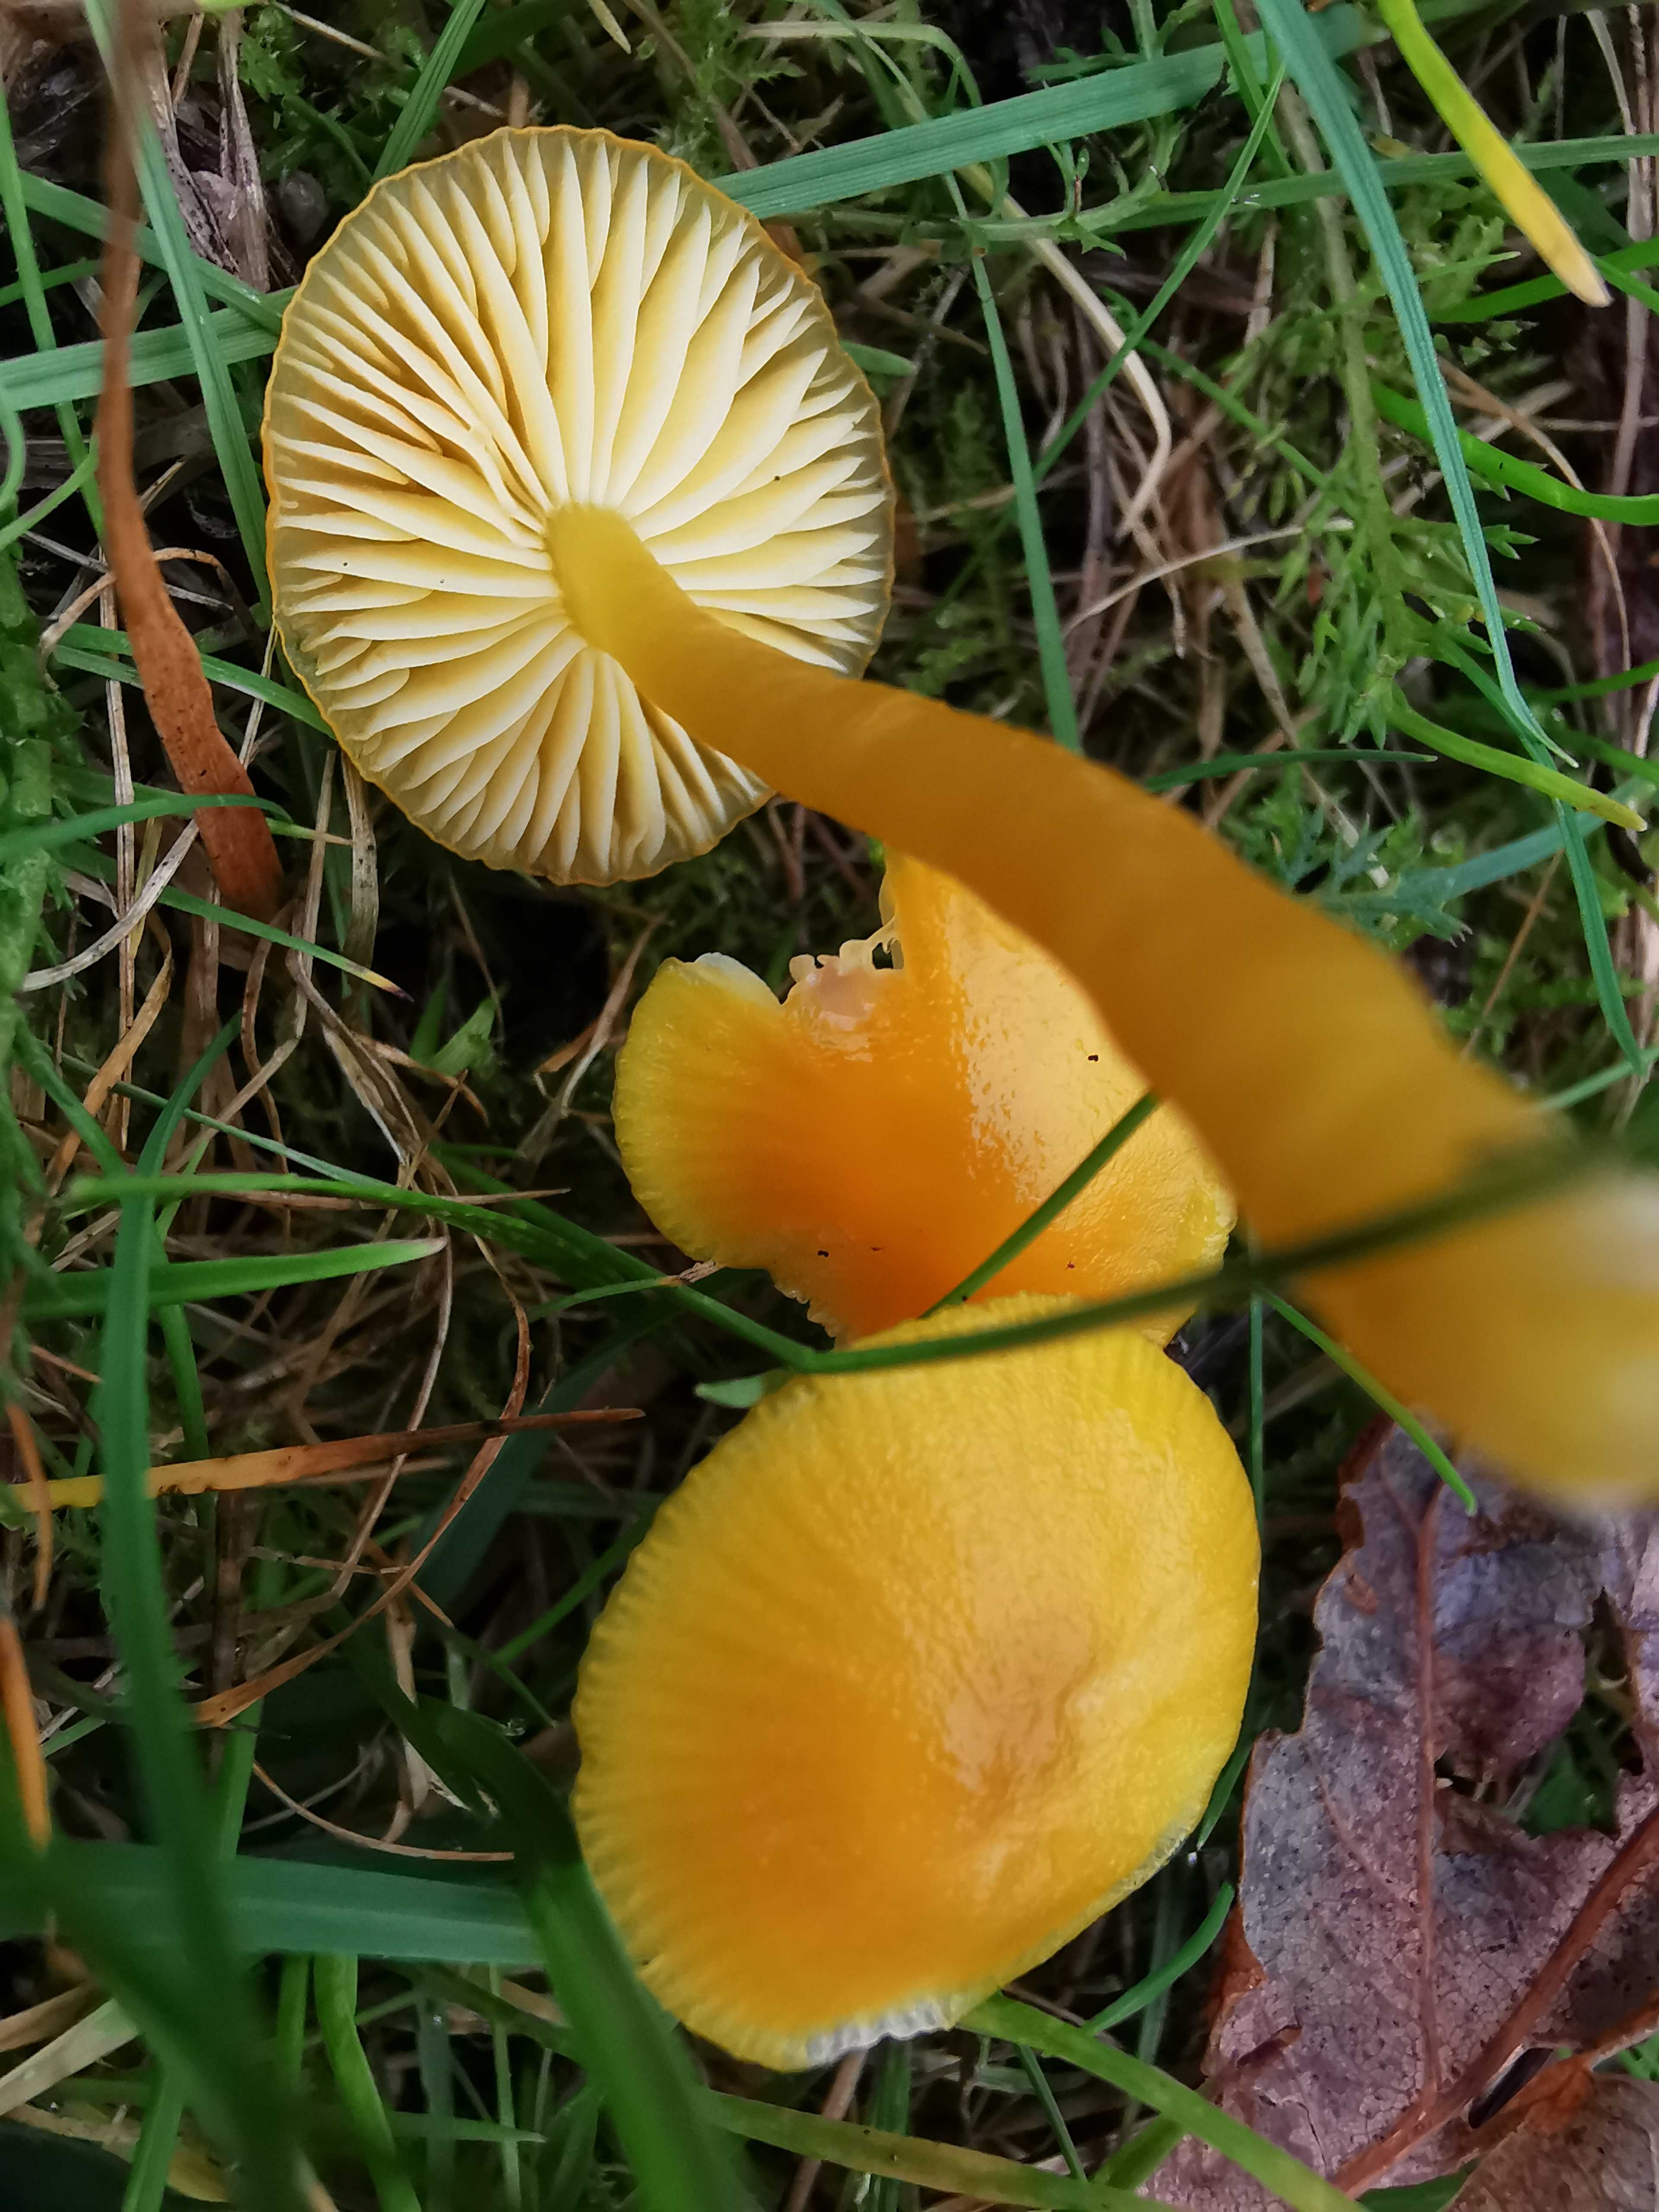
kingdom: Fungi
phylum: Basidiomycota
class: Agaricomycetes
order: Agaricales
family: Hygrophoraceae
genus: Hygrocybe
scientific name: Hygrocybe ceracea
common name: voksgul vokshat
